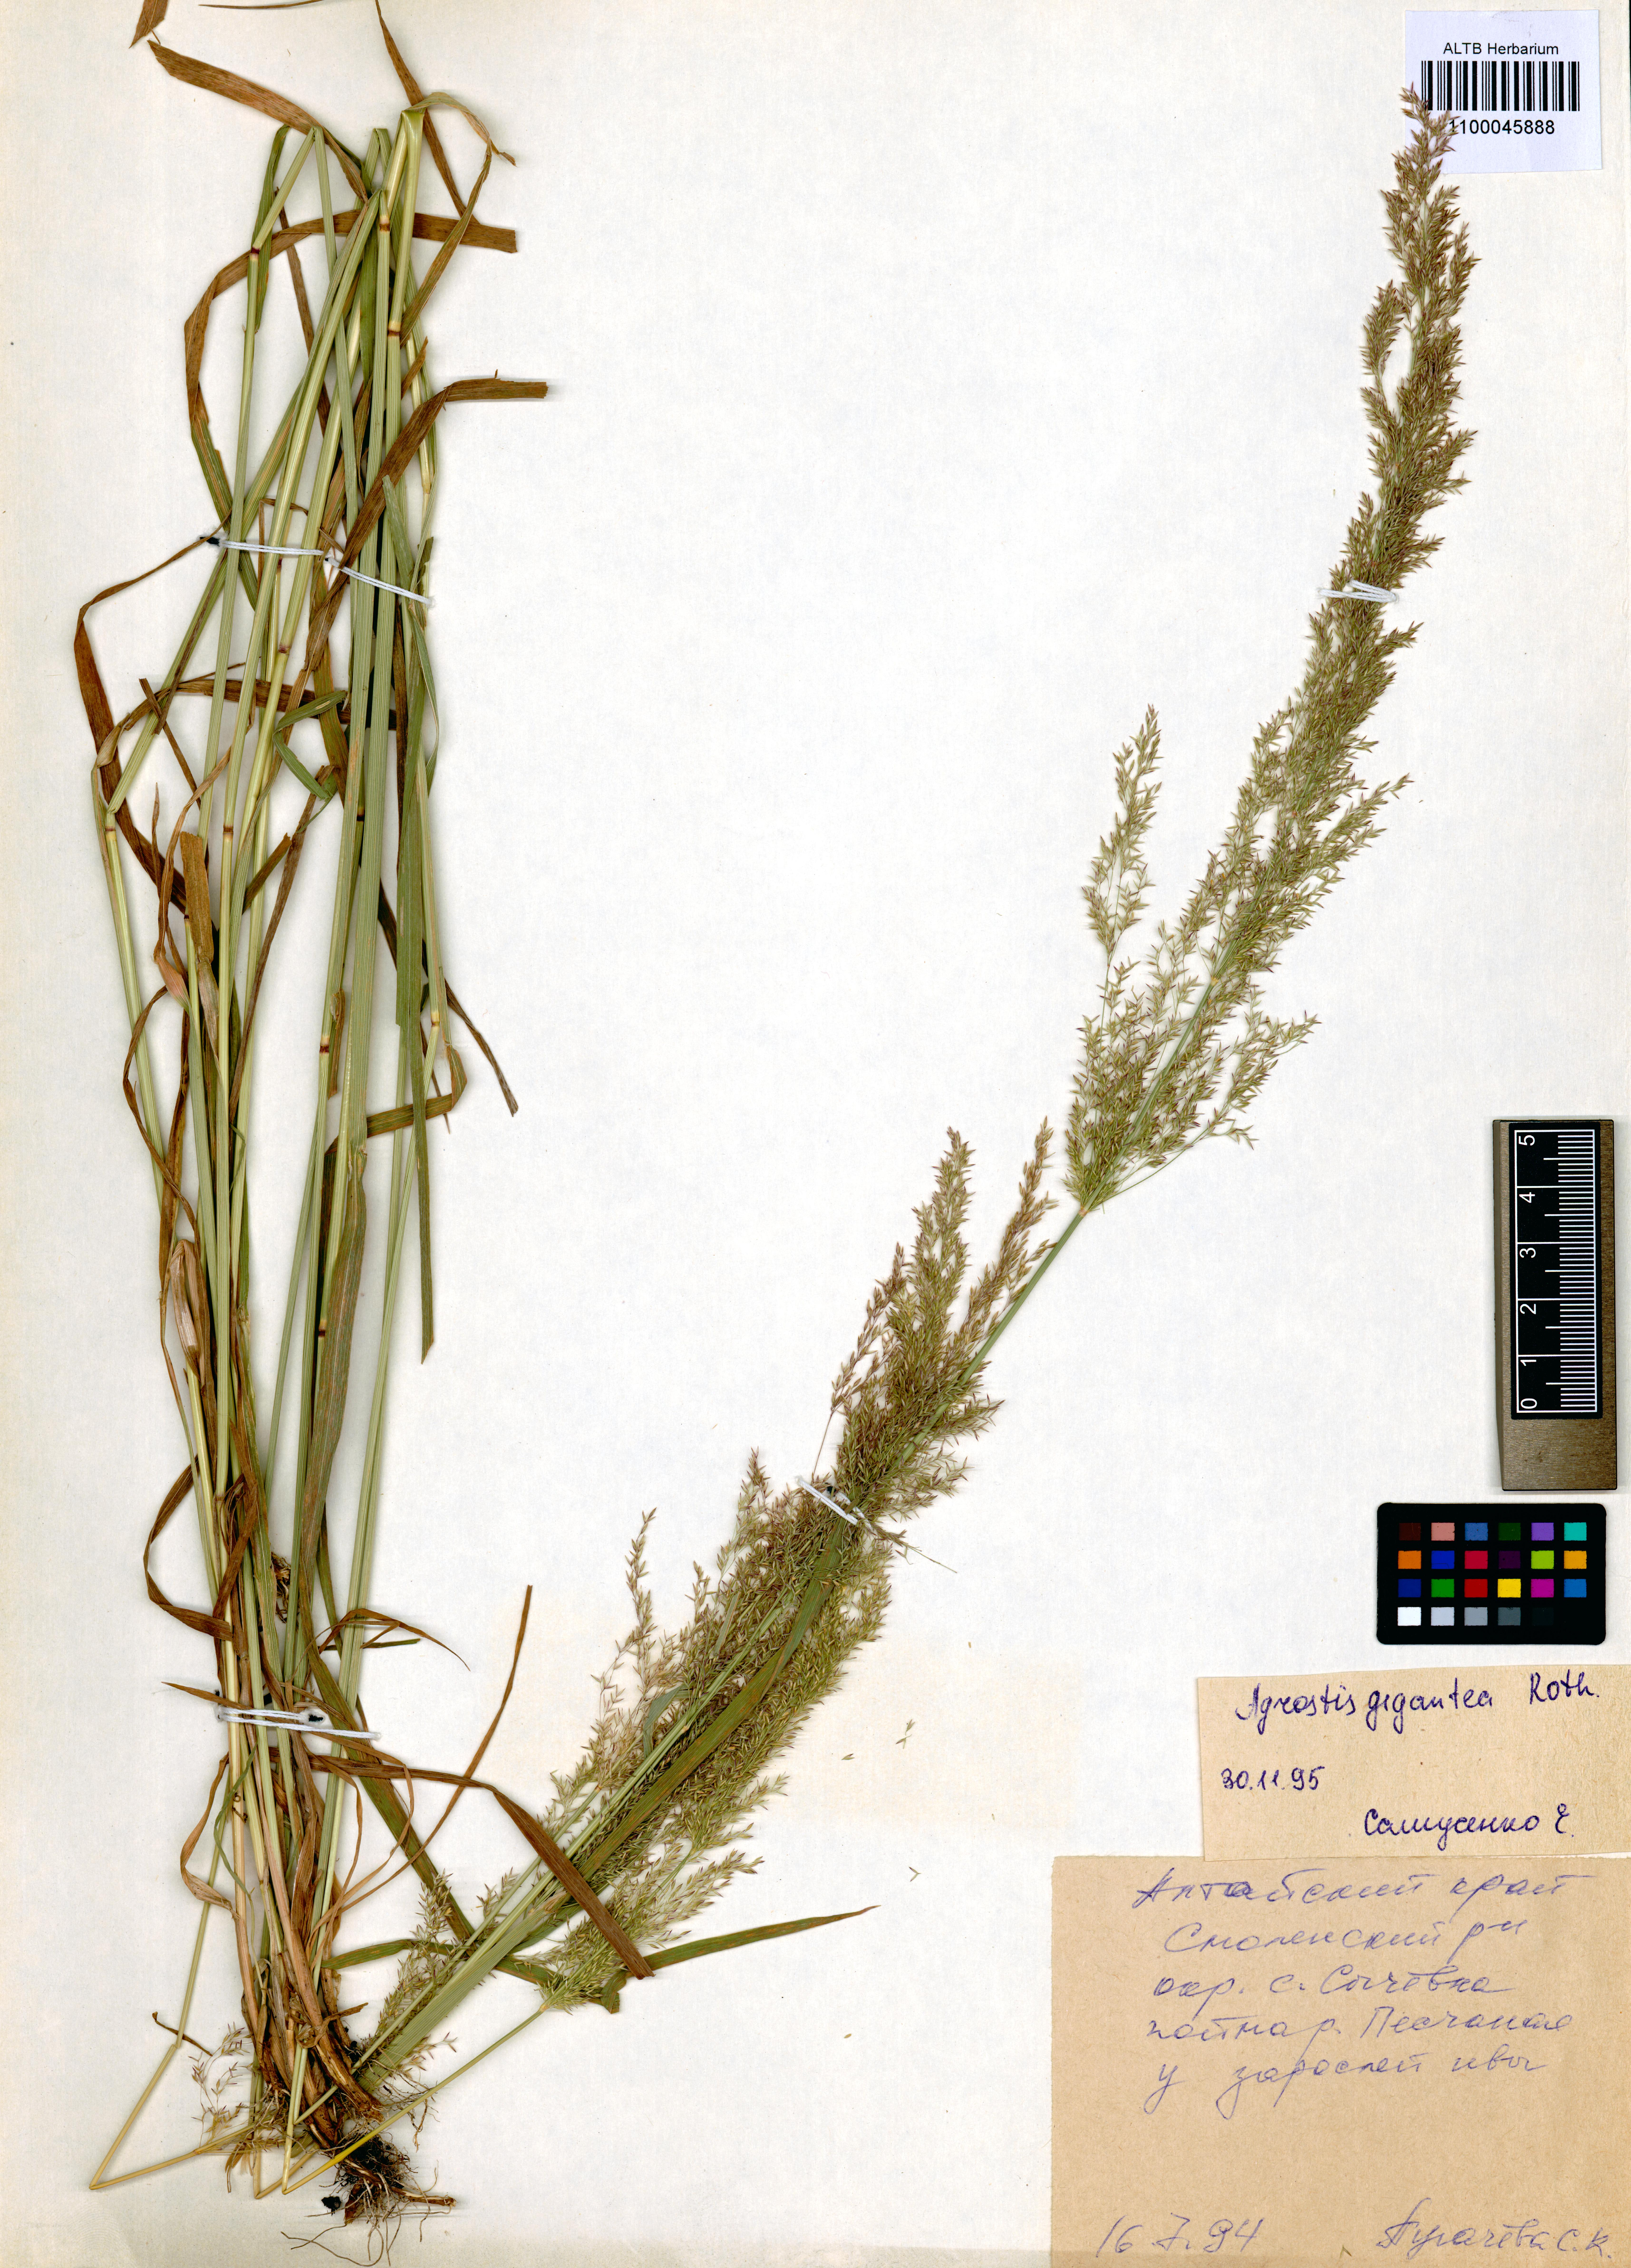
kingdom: Plantae
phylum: Tracheophyta
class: Liliopsida
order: Poales
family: Poaceae
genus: Agrostis
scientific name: Agrostis gigantea
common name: Black bent
